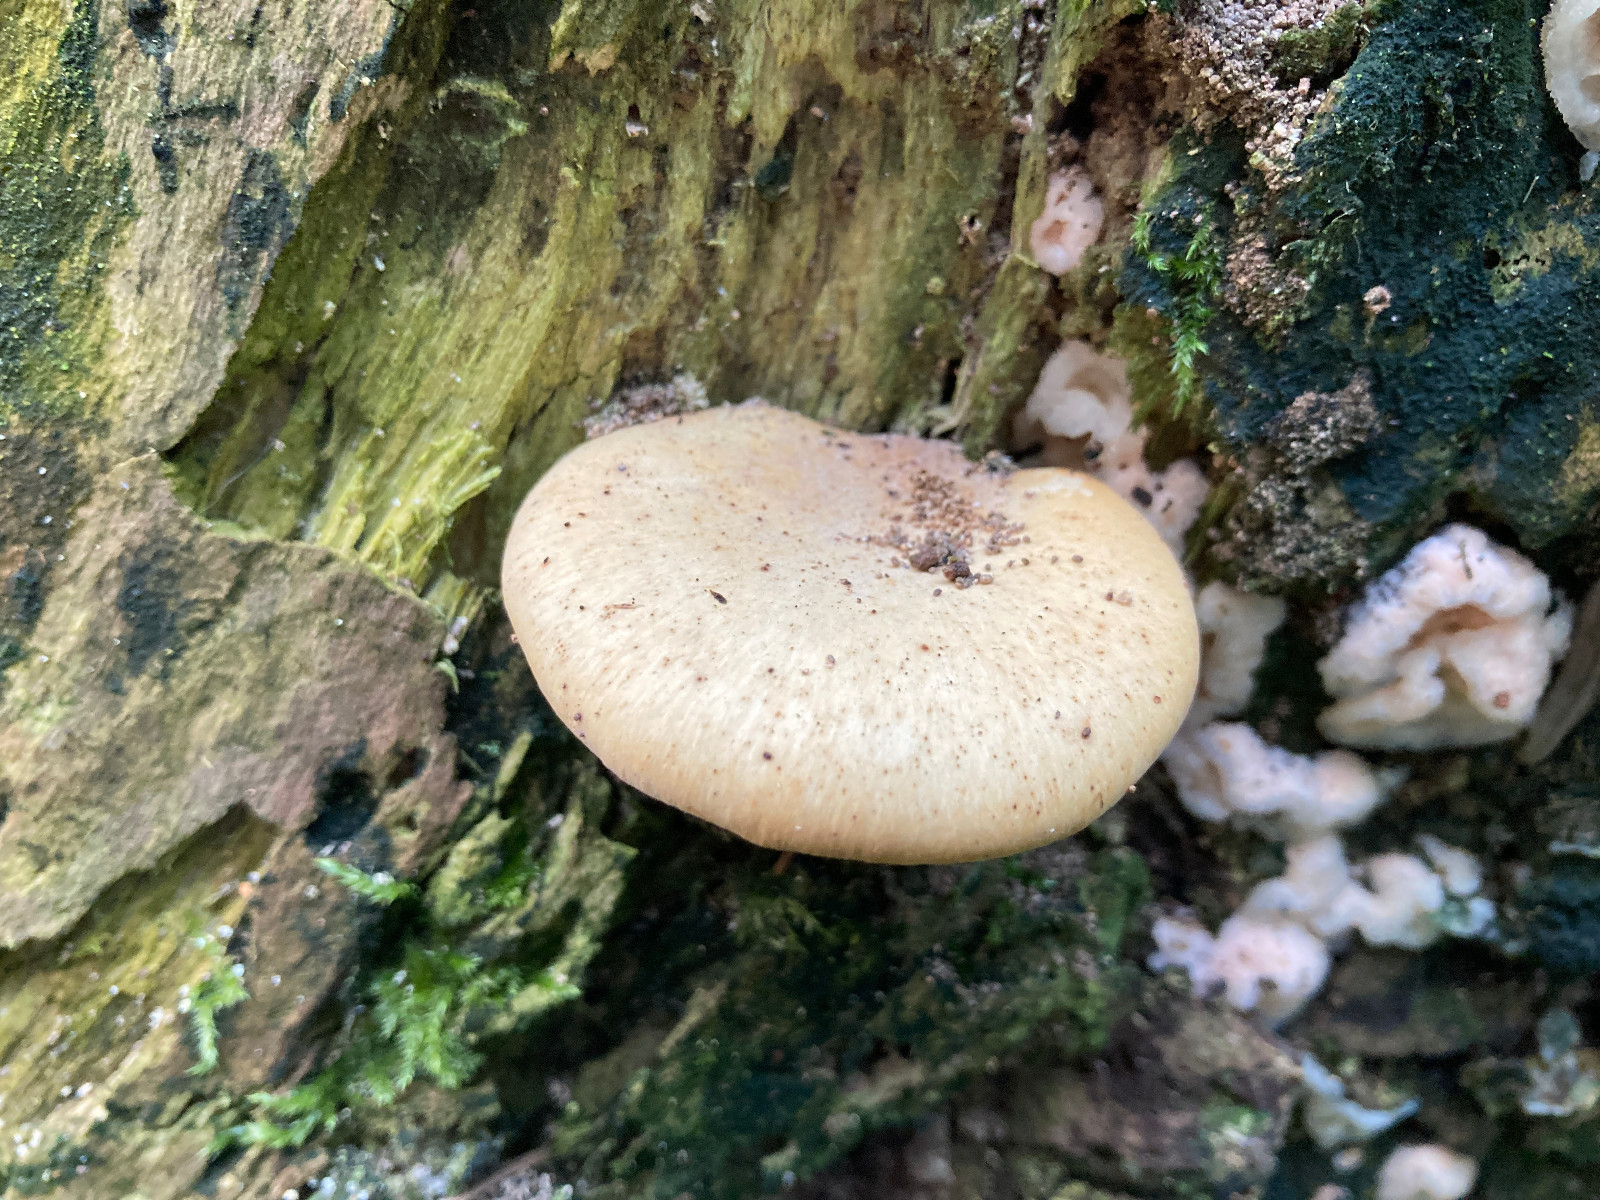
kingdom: Fungi
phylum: Basidiomycota
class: Agaricomycetes
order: Polyporales
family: Polyporaceae
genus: Cerioporus
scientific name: Cerioporus varius
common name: foranderlig stilkporesvamp
